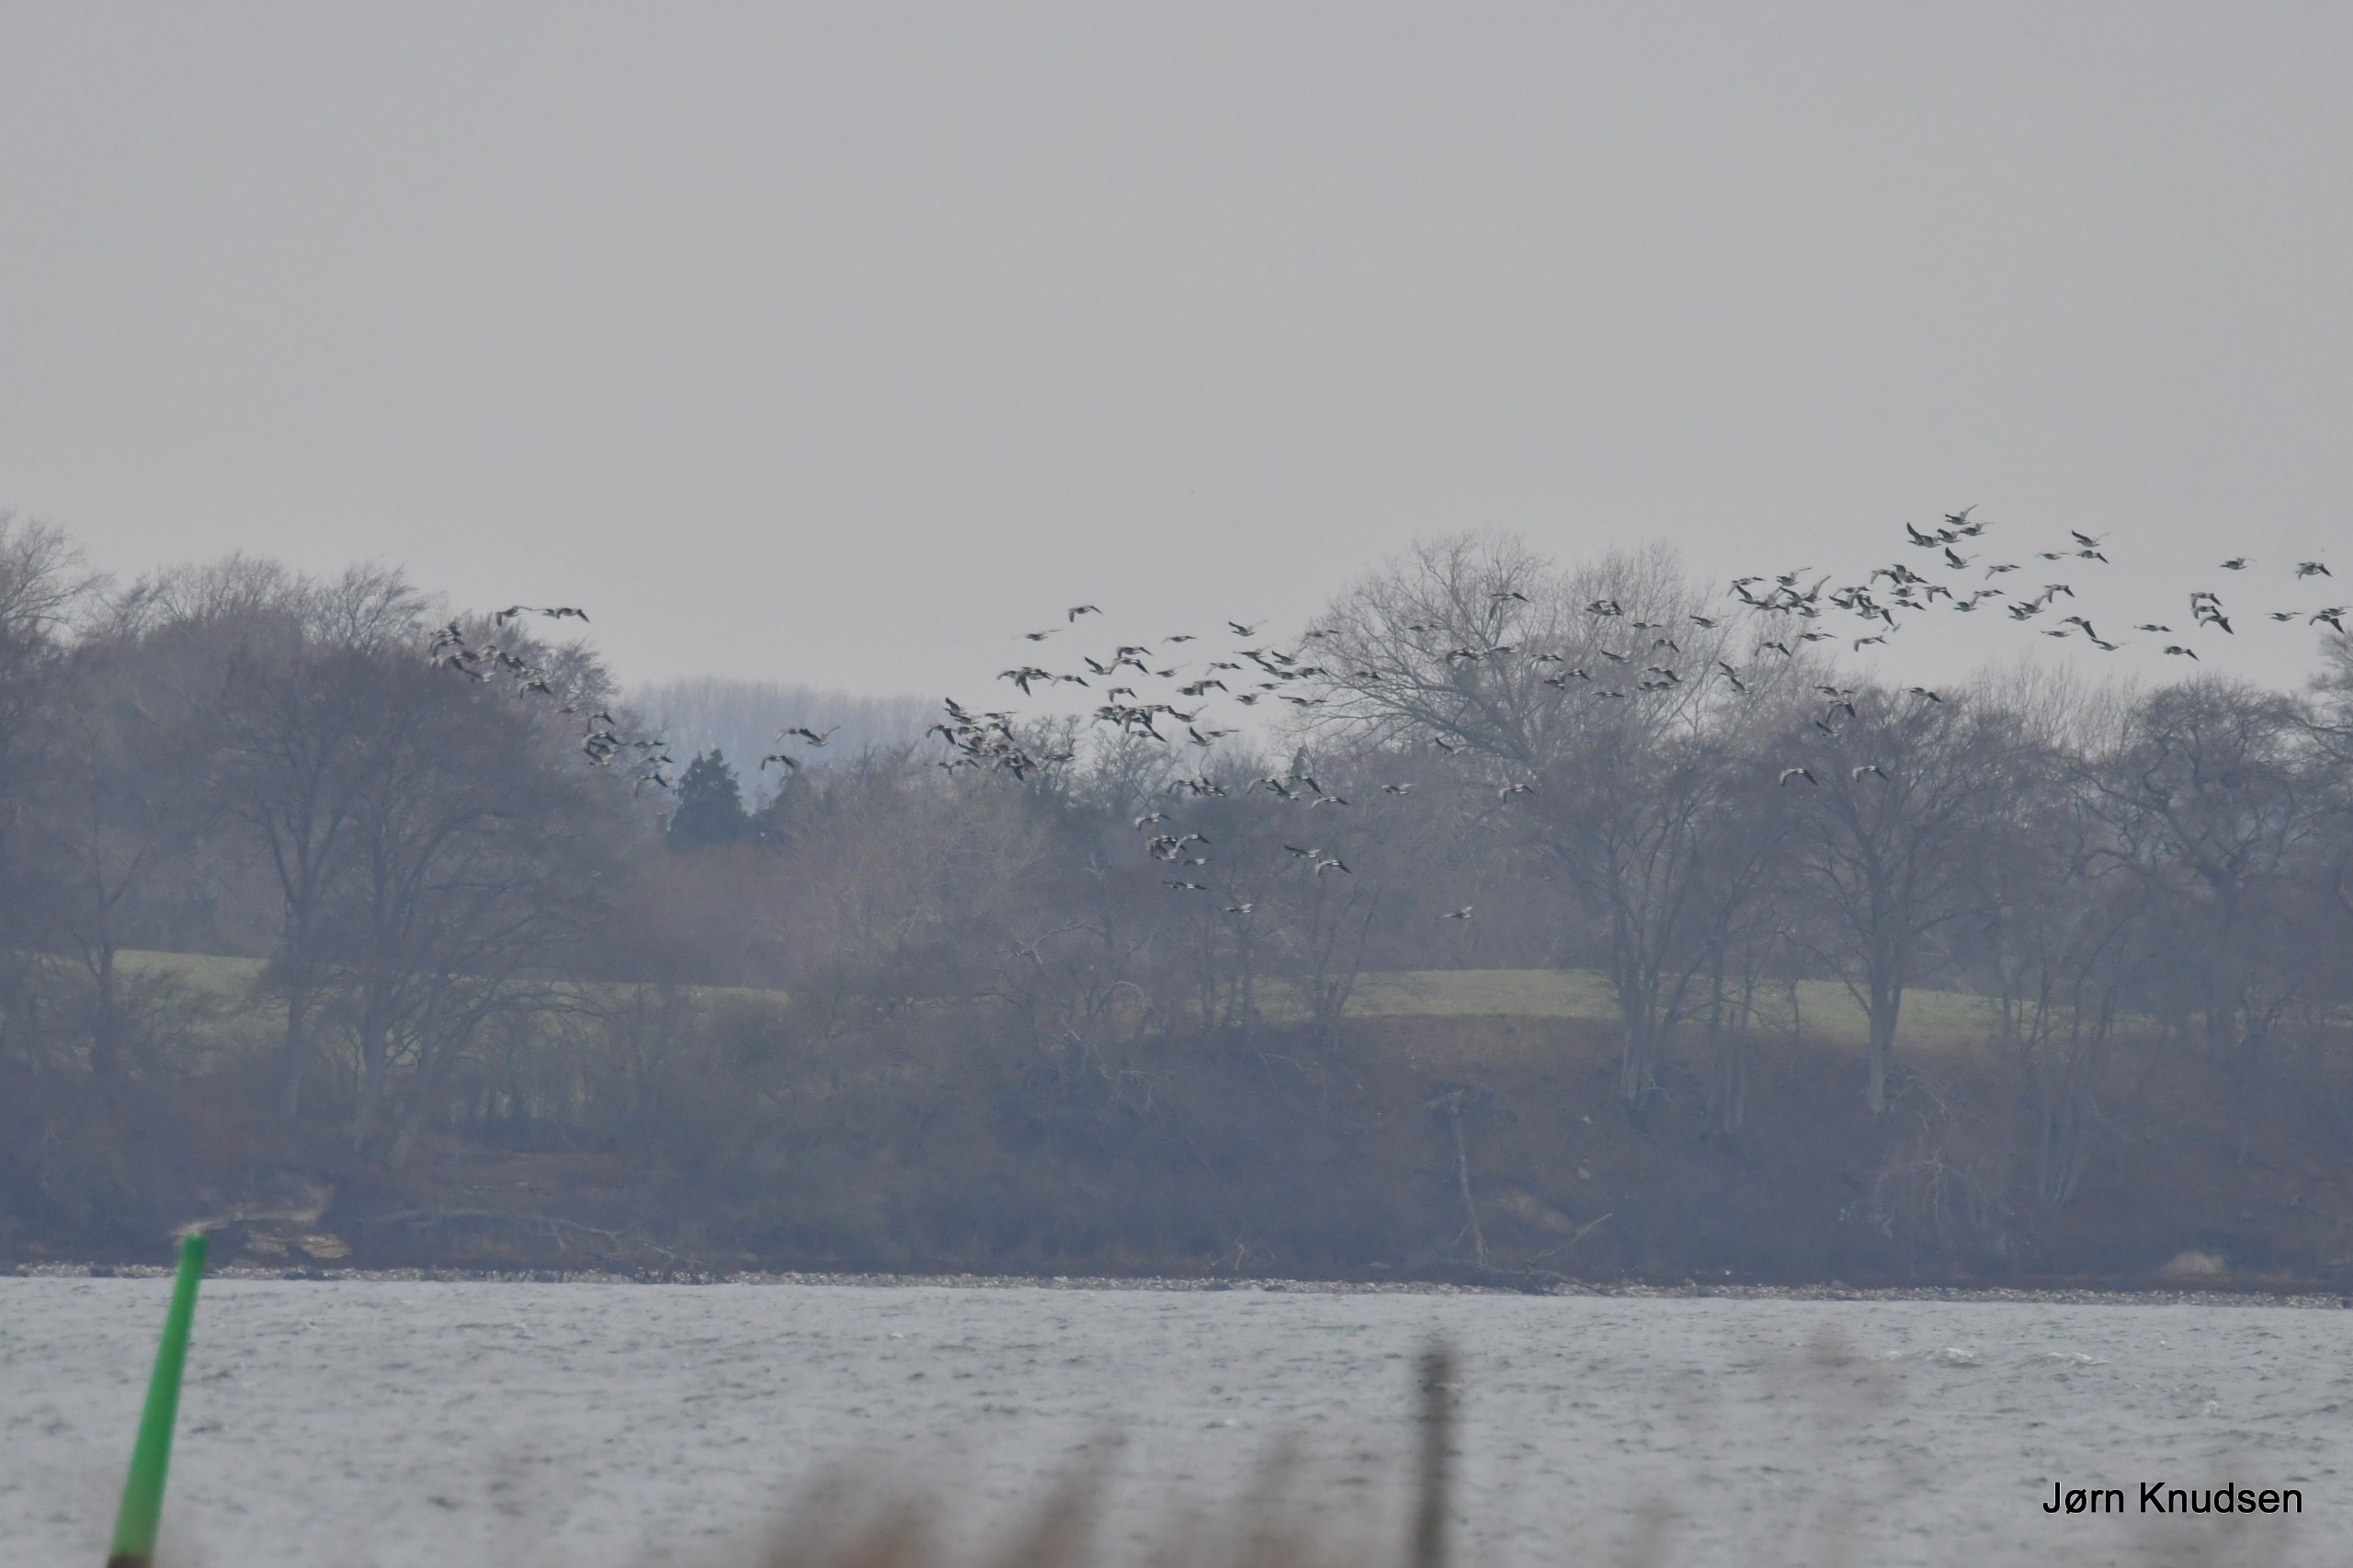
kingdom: Animalia
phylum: Chordata
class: Aves
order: Anseriformes
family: Anatidae
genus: Branta
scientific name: Branta leucopsis
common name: Bramgås
